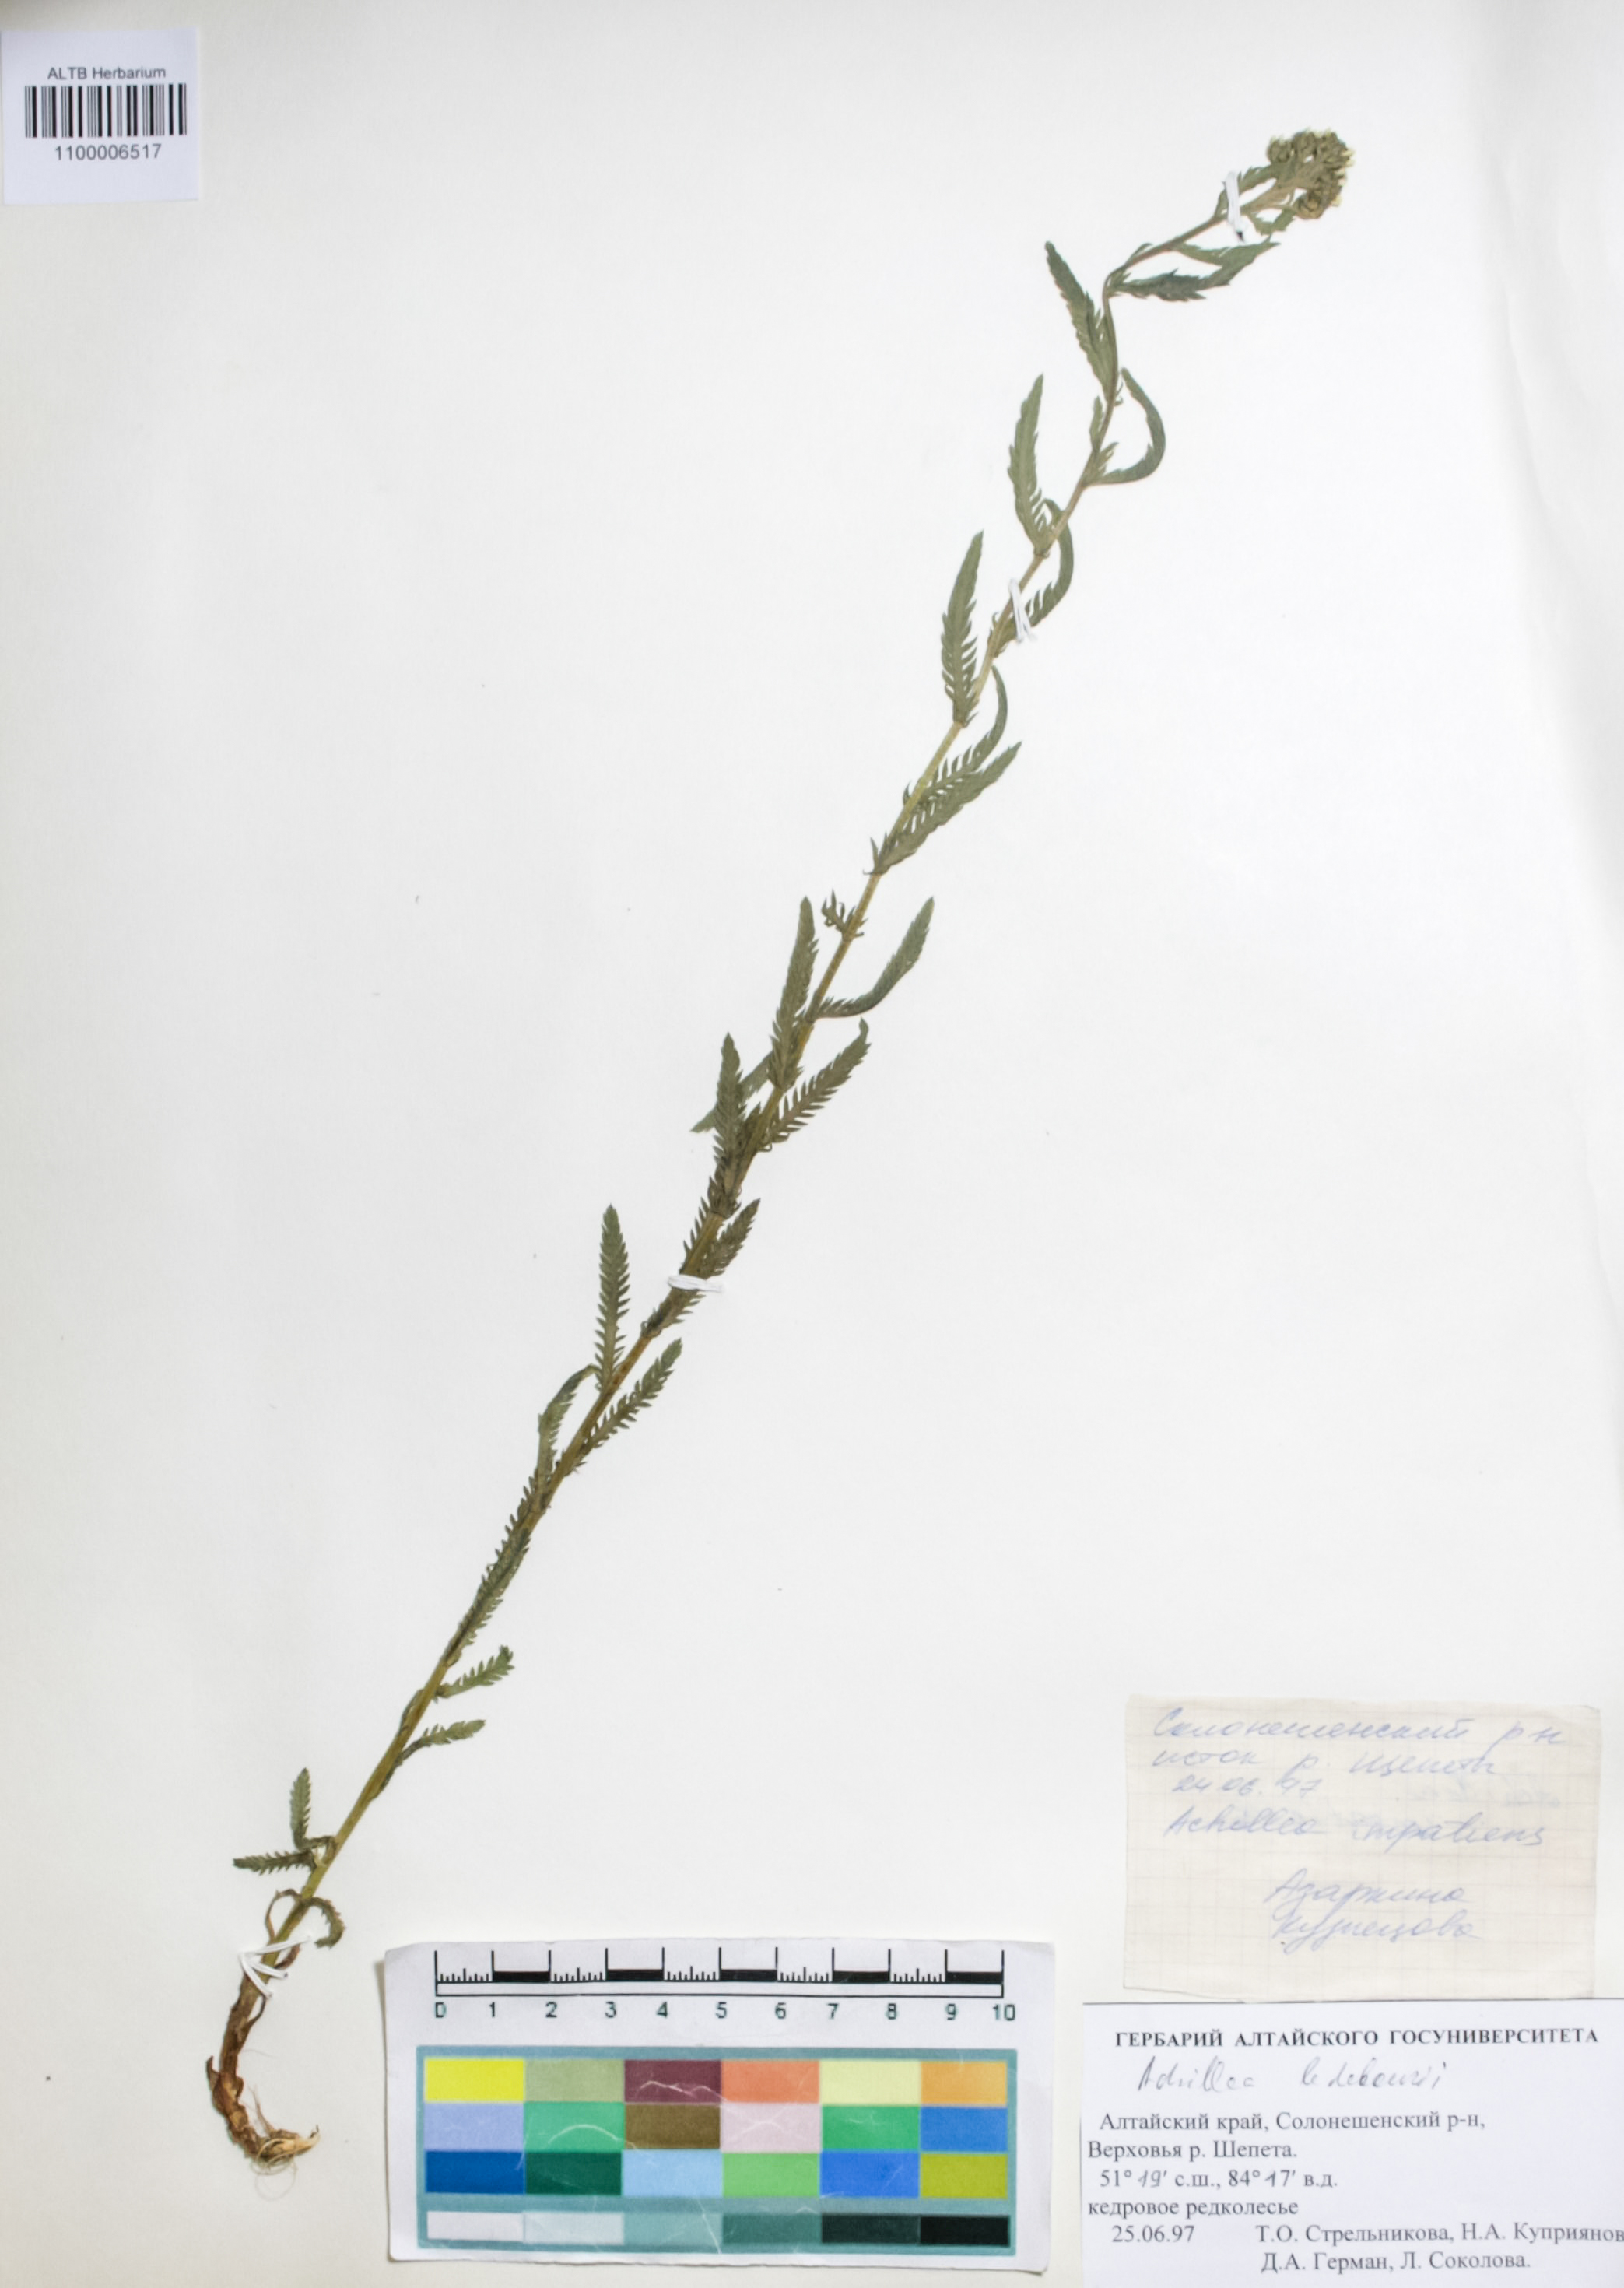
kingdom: Plantae
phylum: Tracheophyta
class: Magnoliopsida
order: Asterales
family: Asteraceae
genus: Achillea
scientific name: Achillea impatiens
